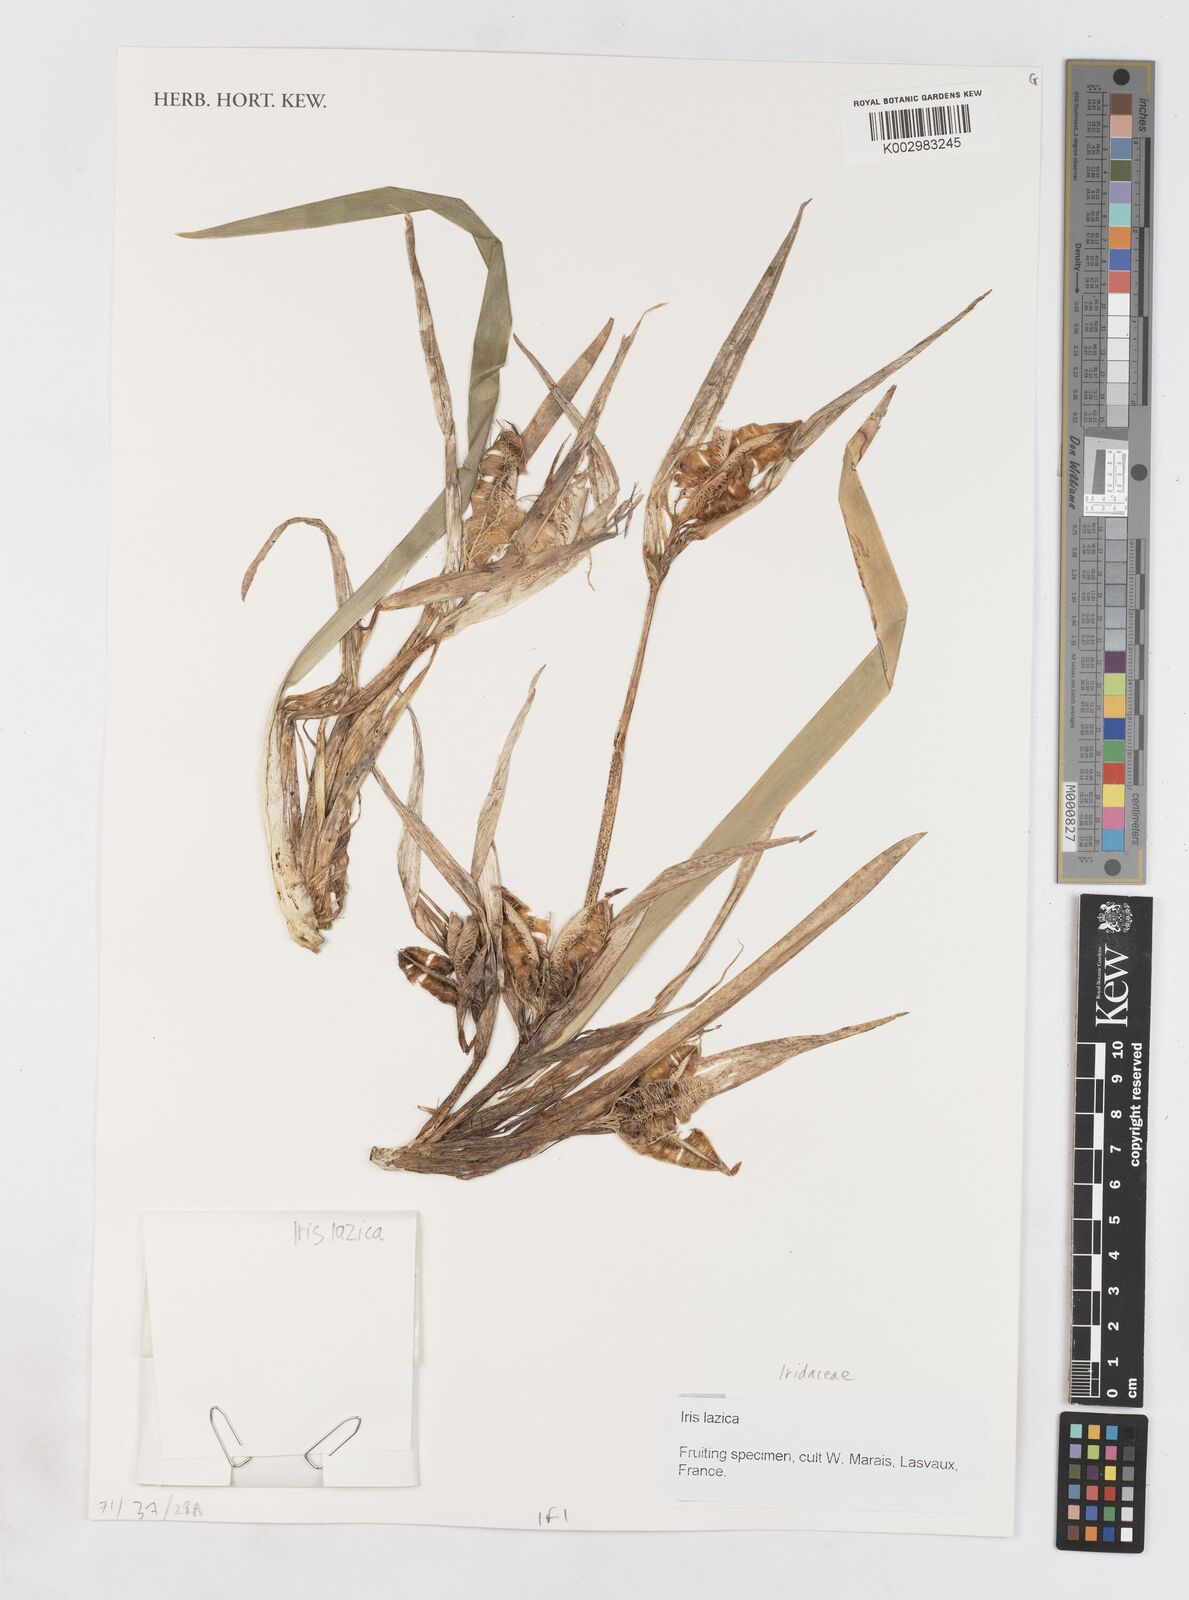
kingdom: Plantae
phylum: Tracheophyta
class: Liliopsida
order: Asparagales
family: Iridaceae
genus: Iris
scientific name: Iris lazica
